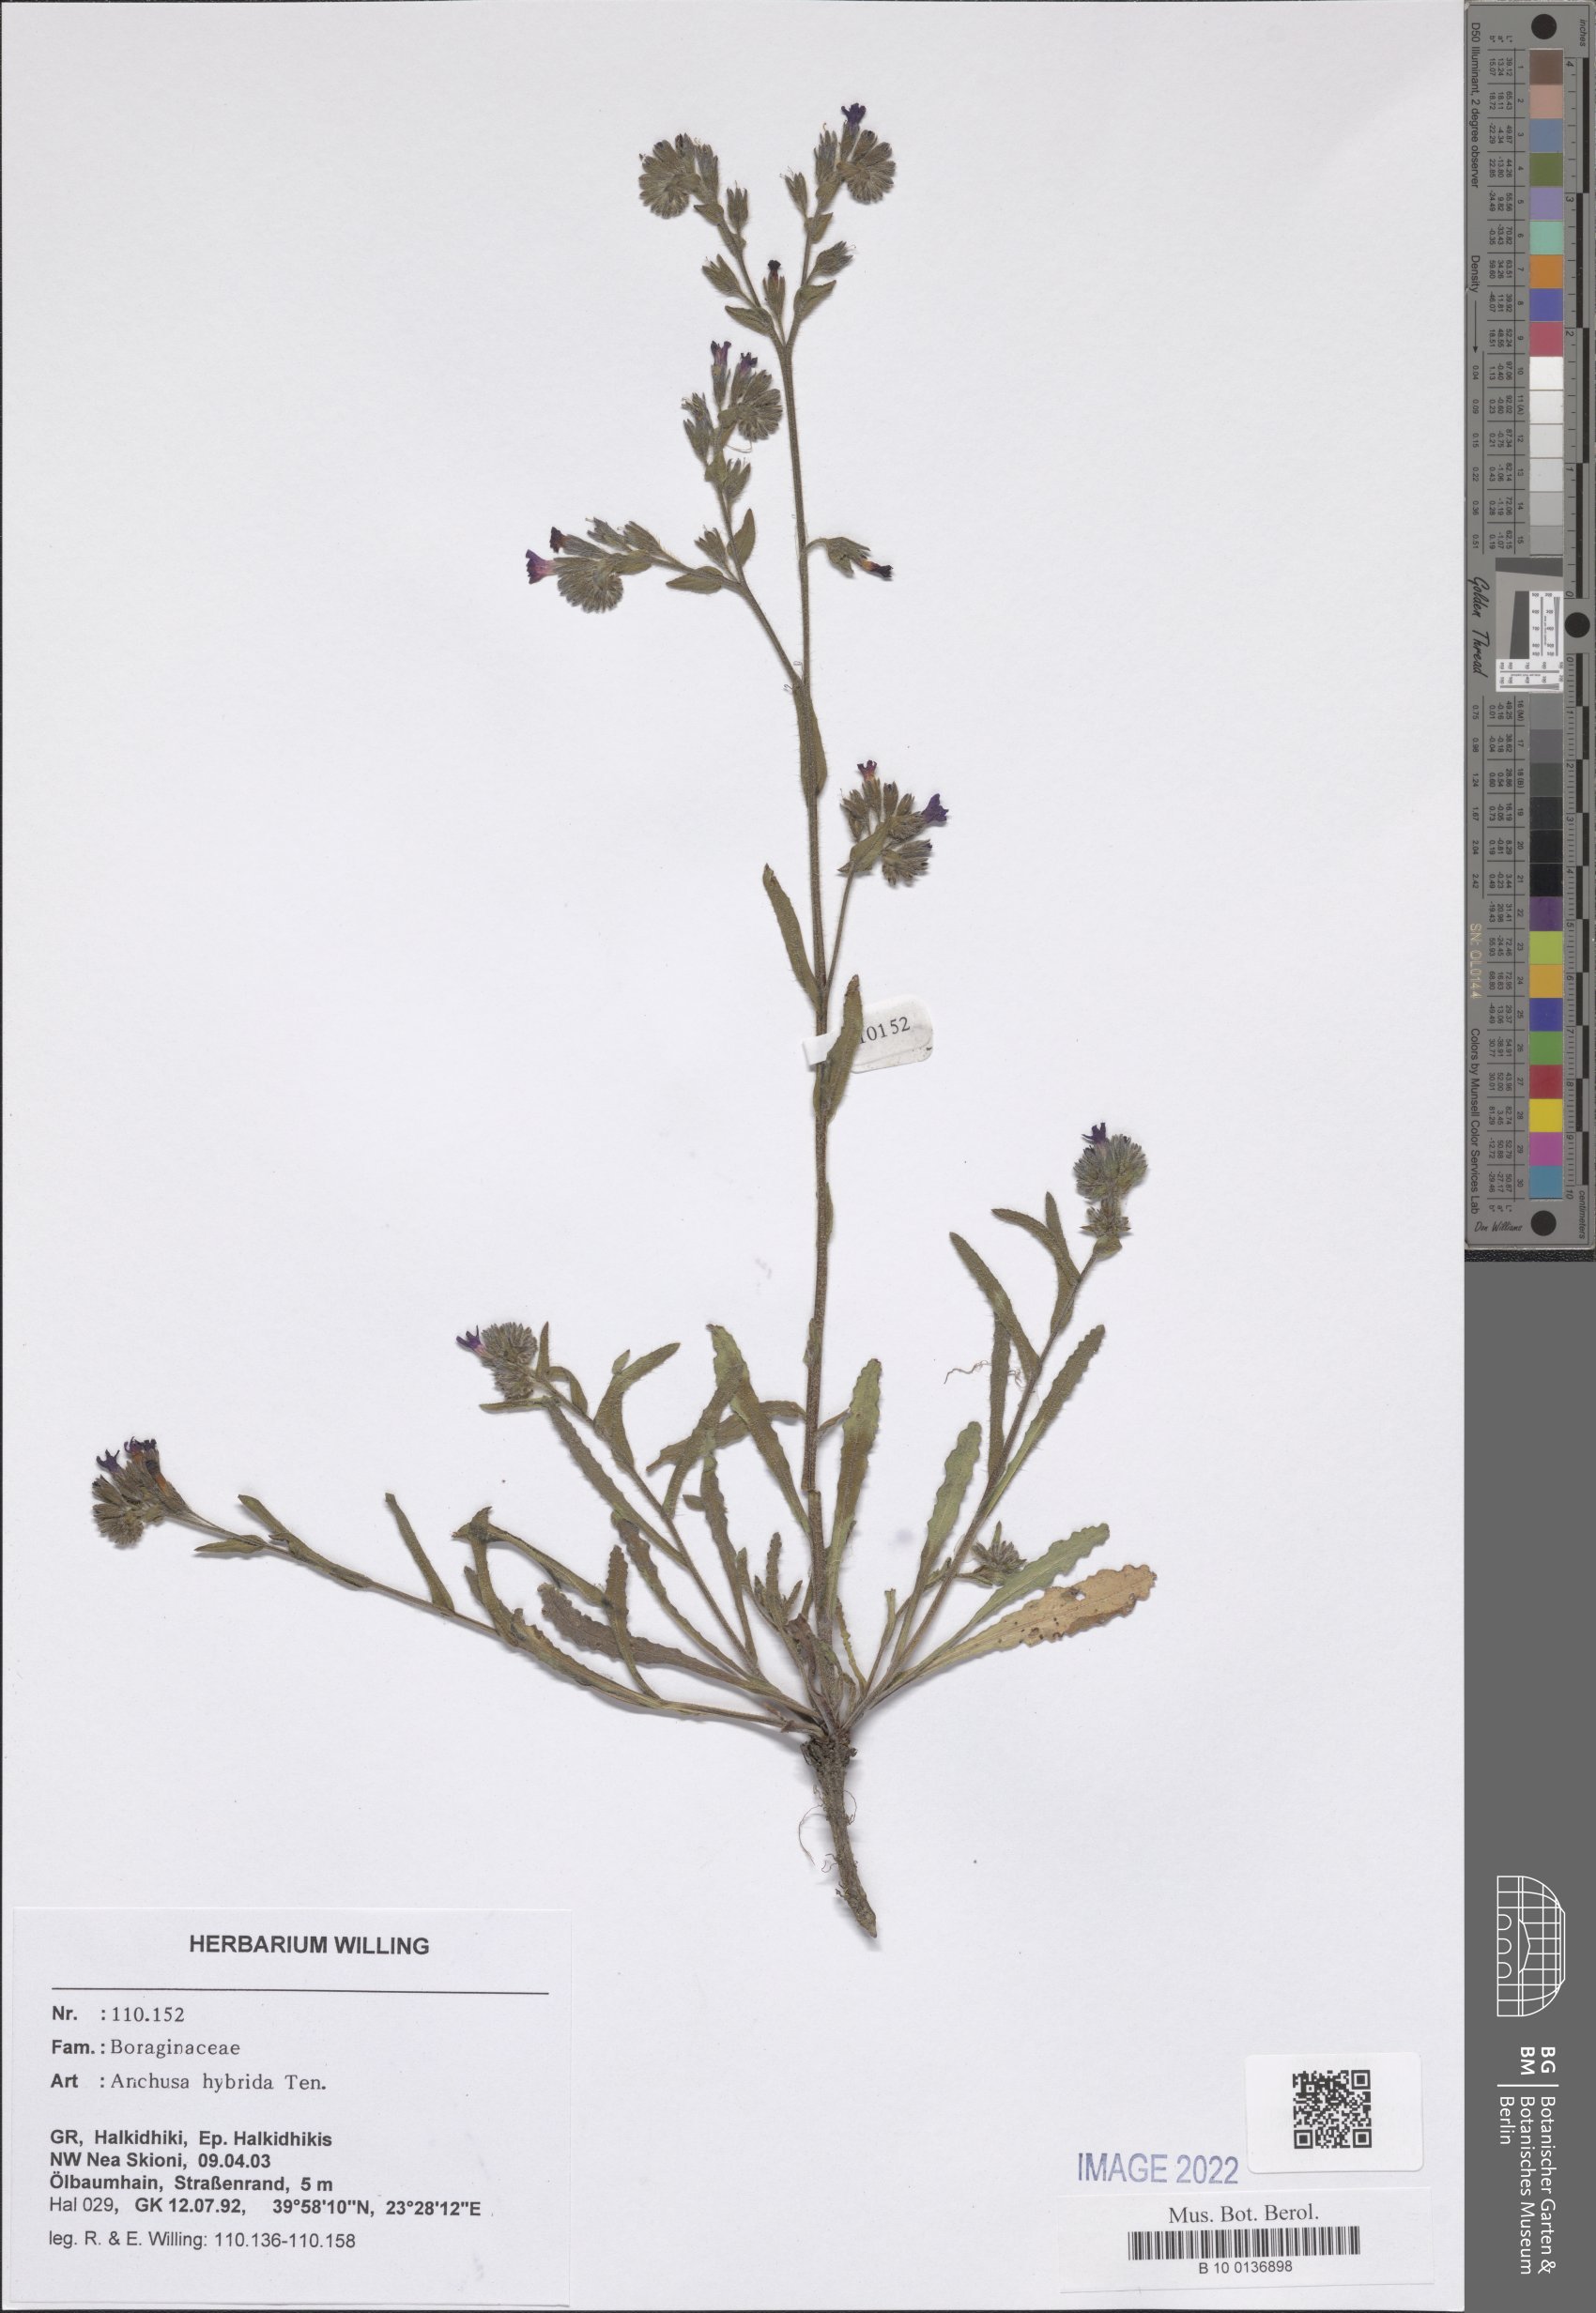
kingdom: Plantae
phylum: Tracheophyta
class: Magnoliopsida
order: Boraginales
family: Boraginaceae
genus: Anchusa
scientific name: Anchusa hybrida
